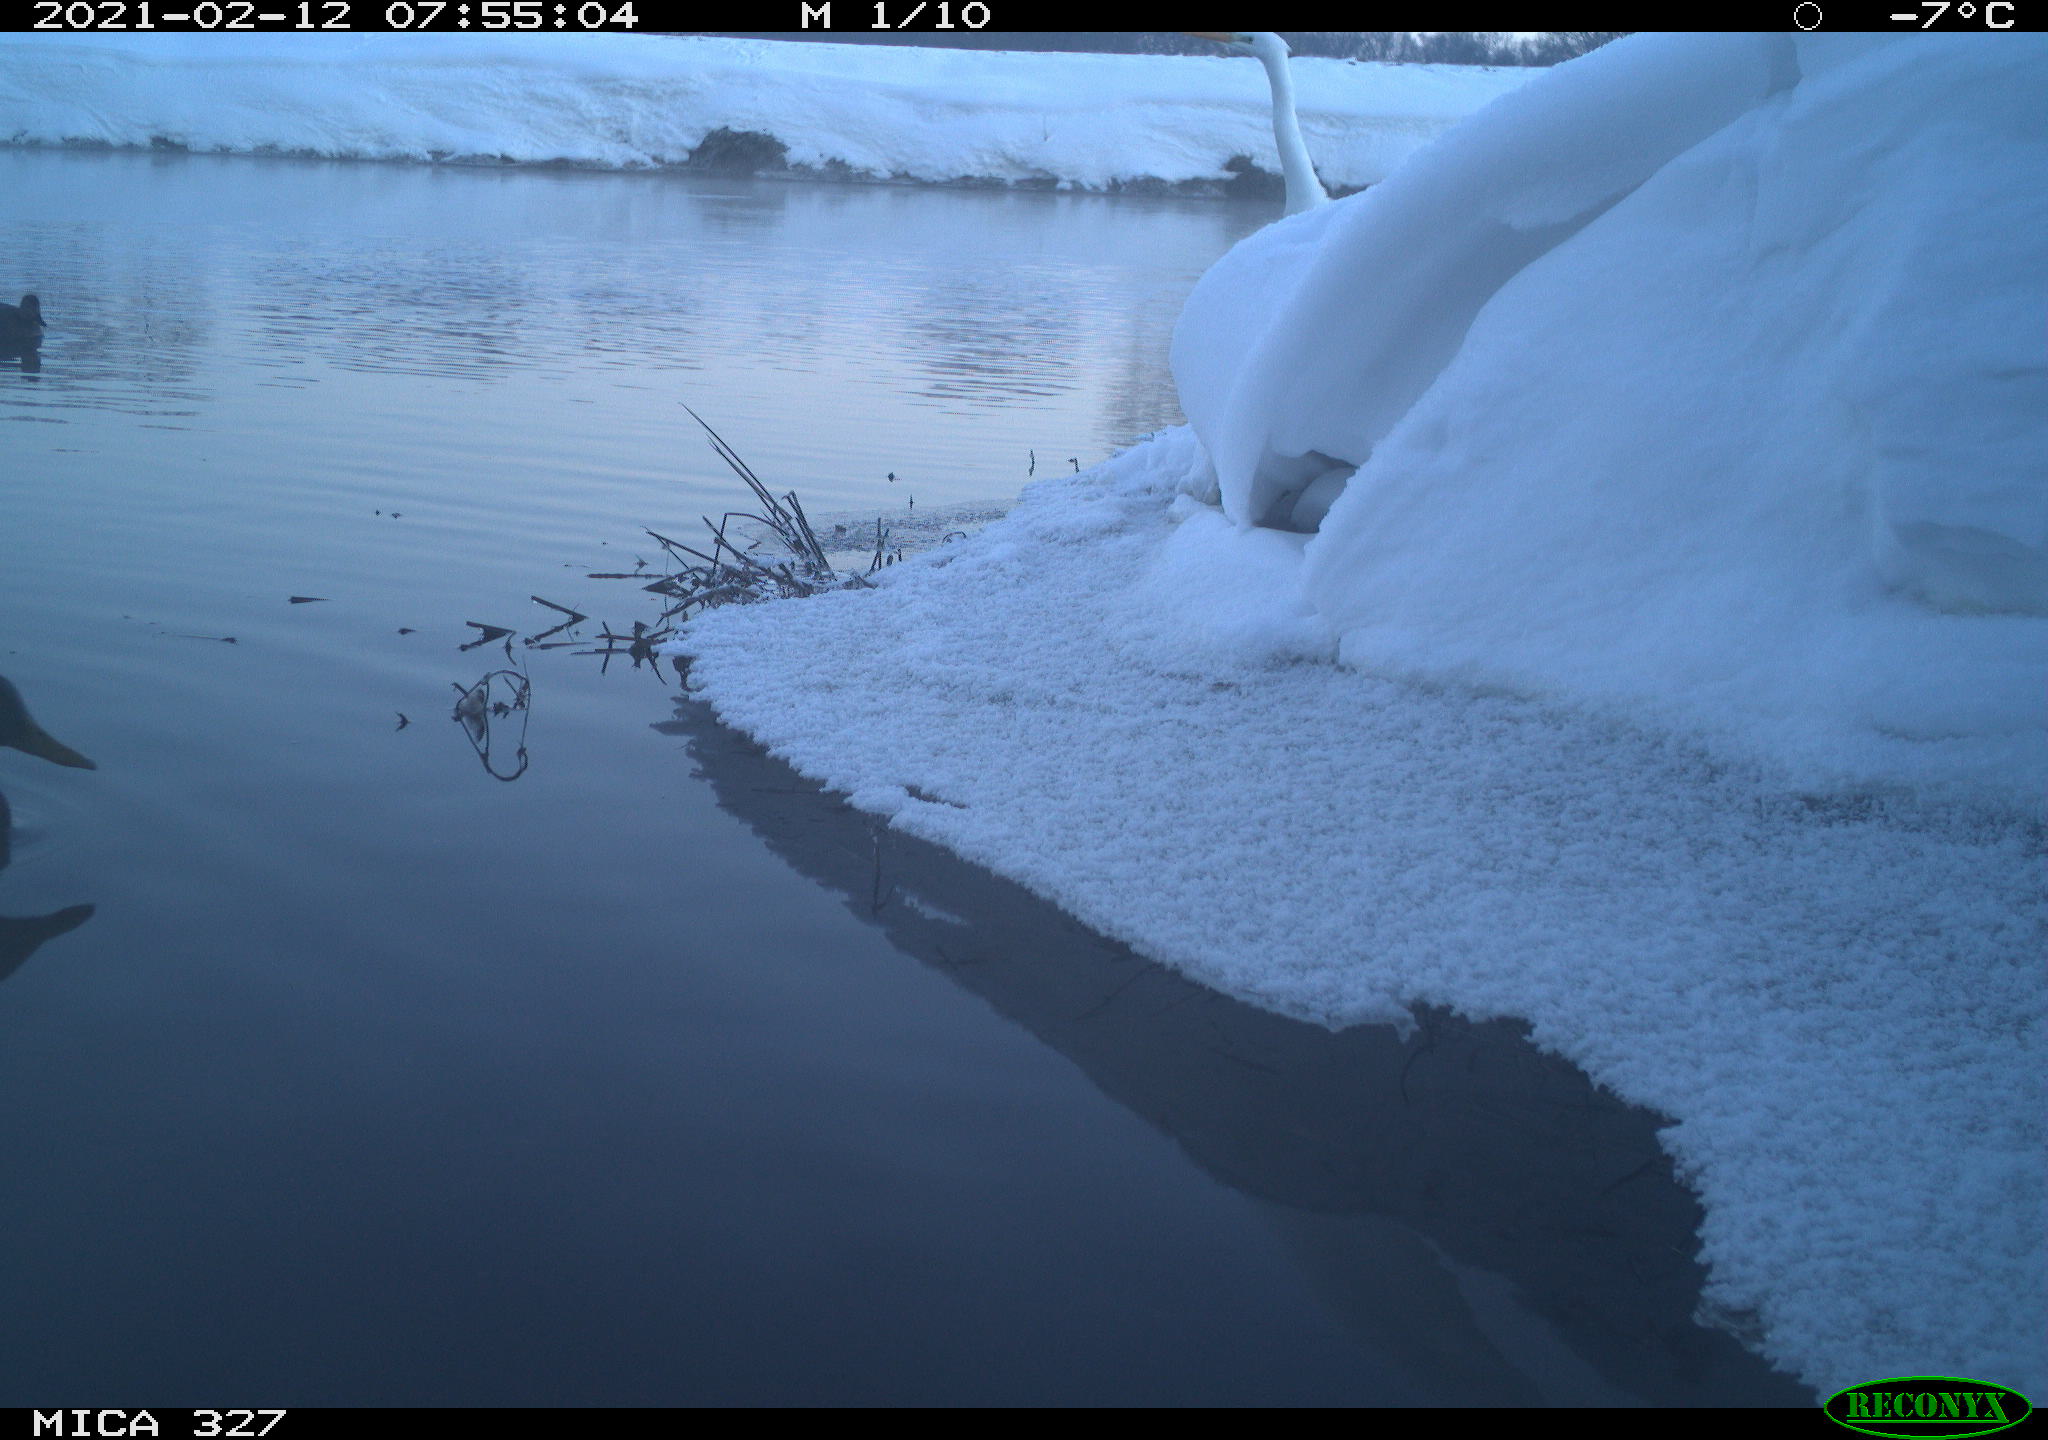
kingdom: Animalia
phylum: Chordata
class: Aves
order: Anseriformes
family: Anatidae
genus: Anas
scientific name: Anas
